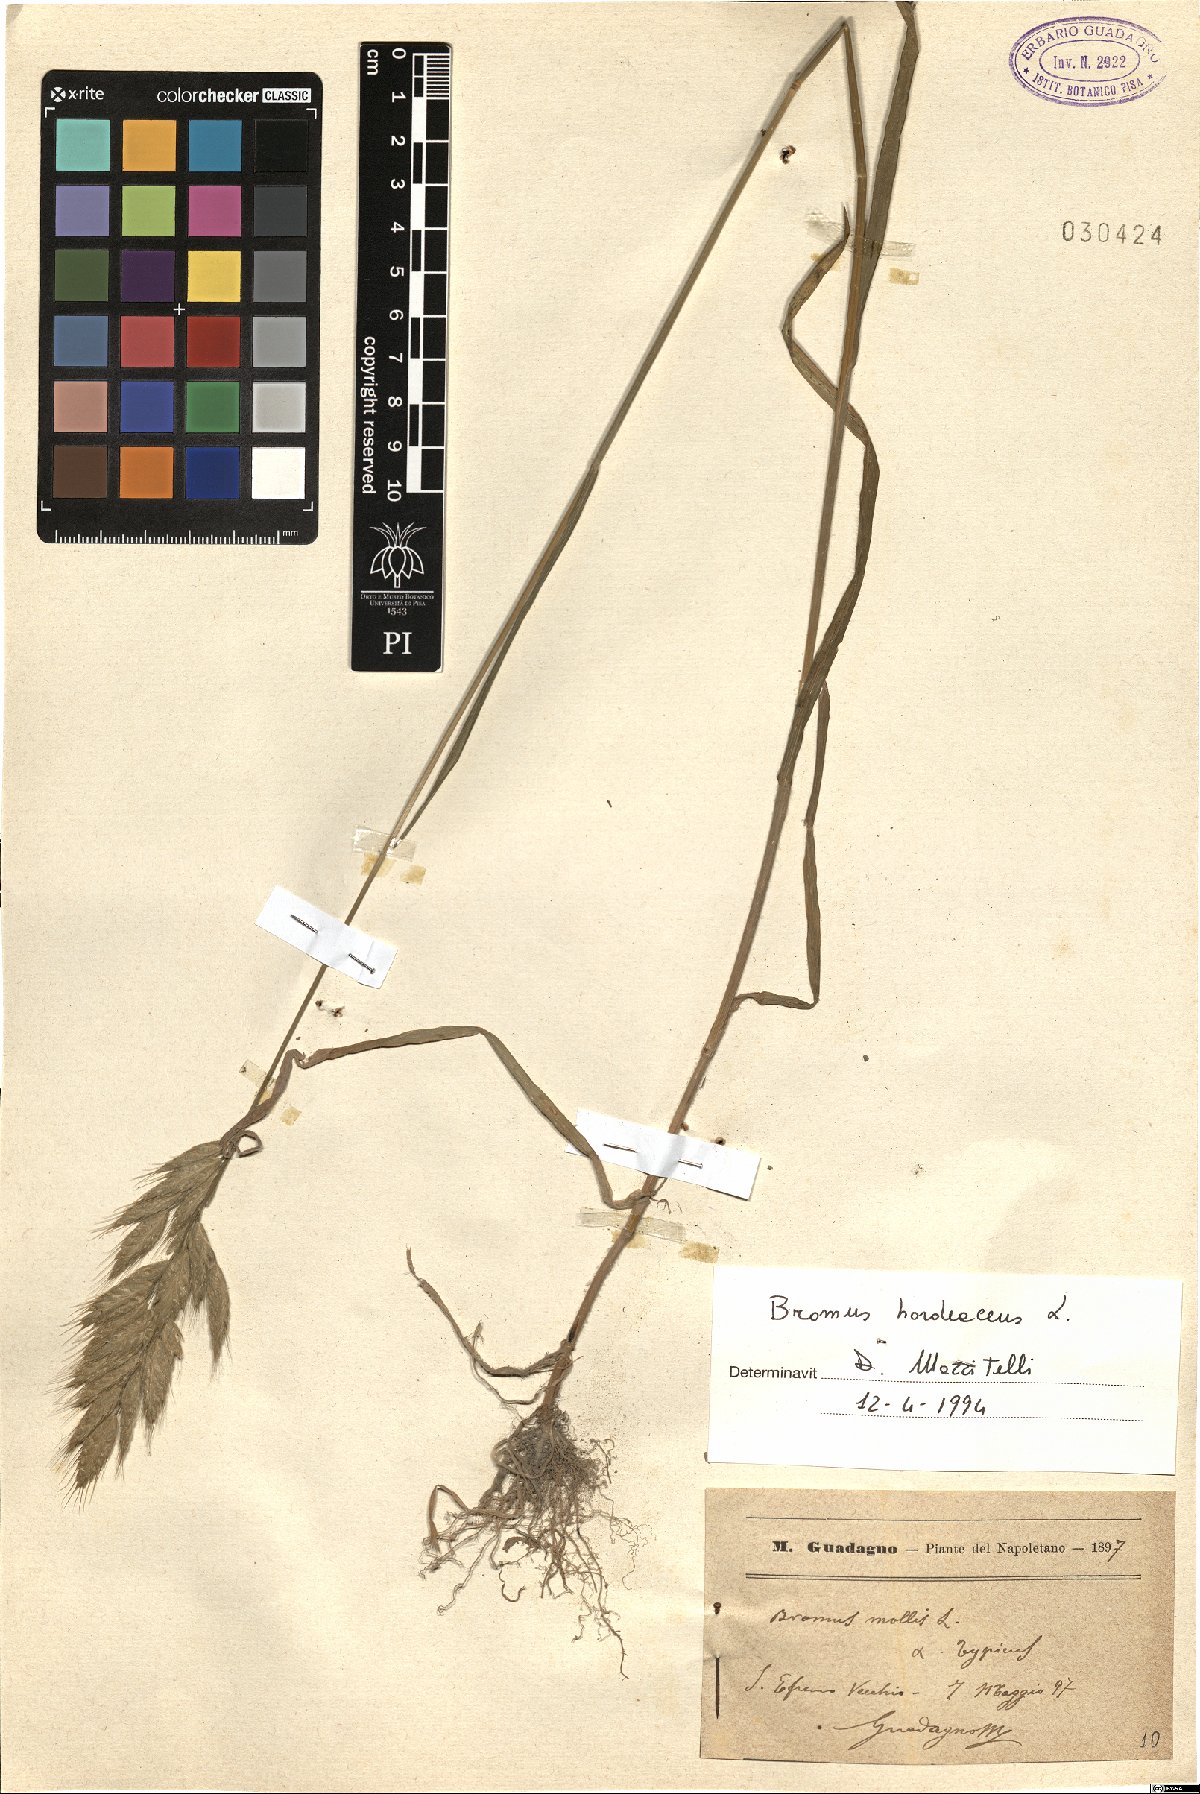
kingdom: Plantae
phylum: Tracheophyta
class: Liliopsida
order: Poales
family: Poaceae
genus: Bromus
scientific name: Bromus hordeaceus
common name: Soft brome
